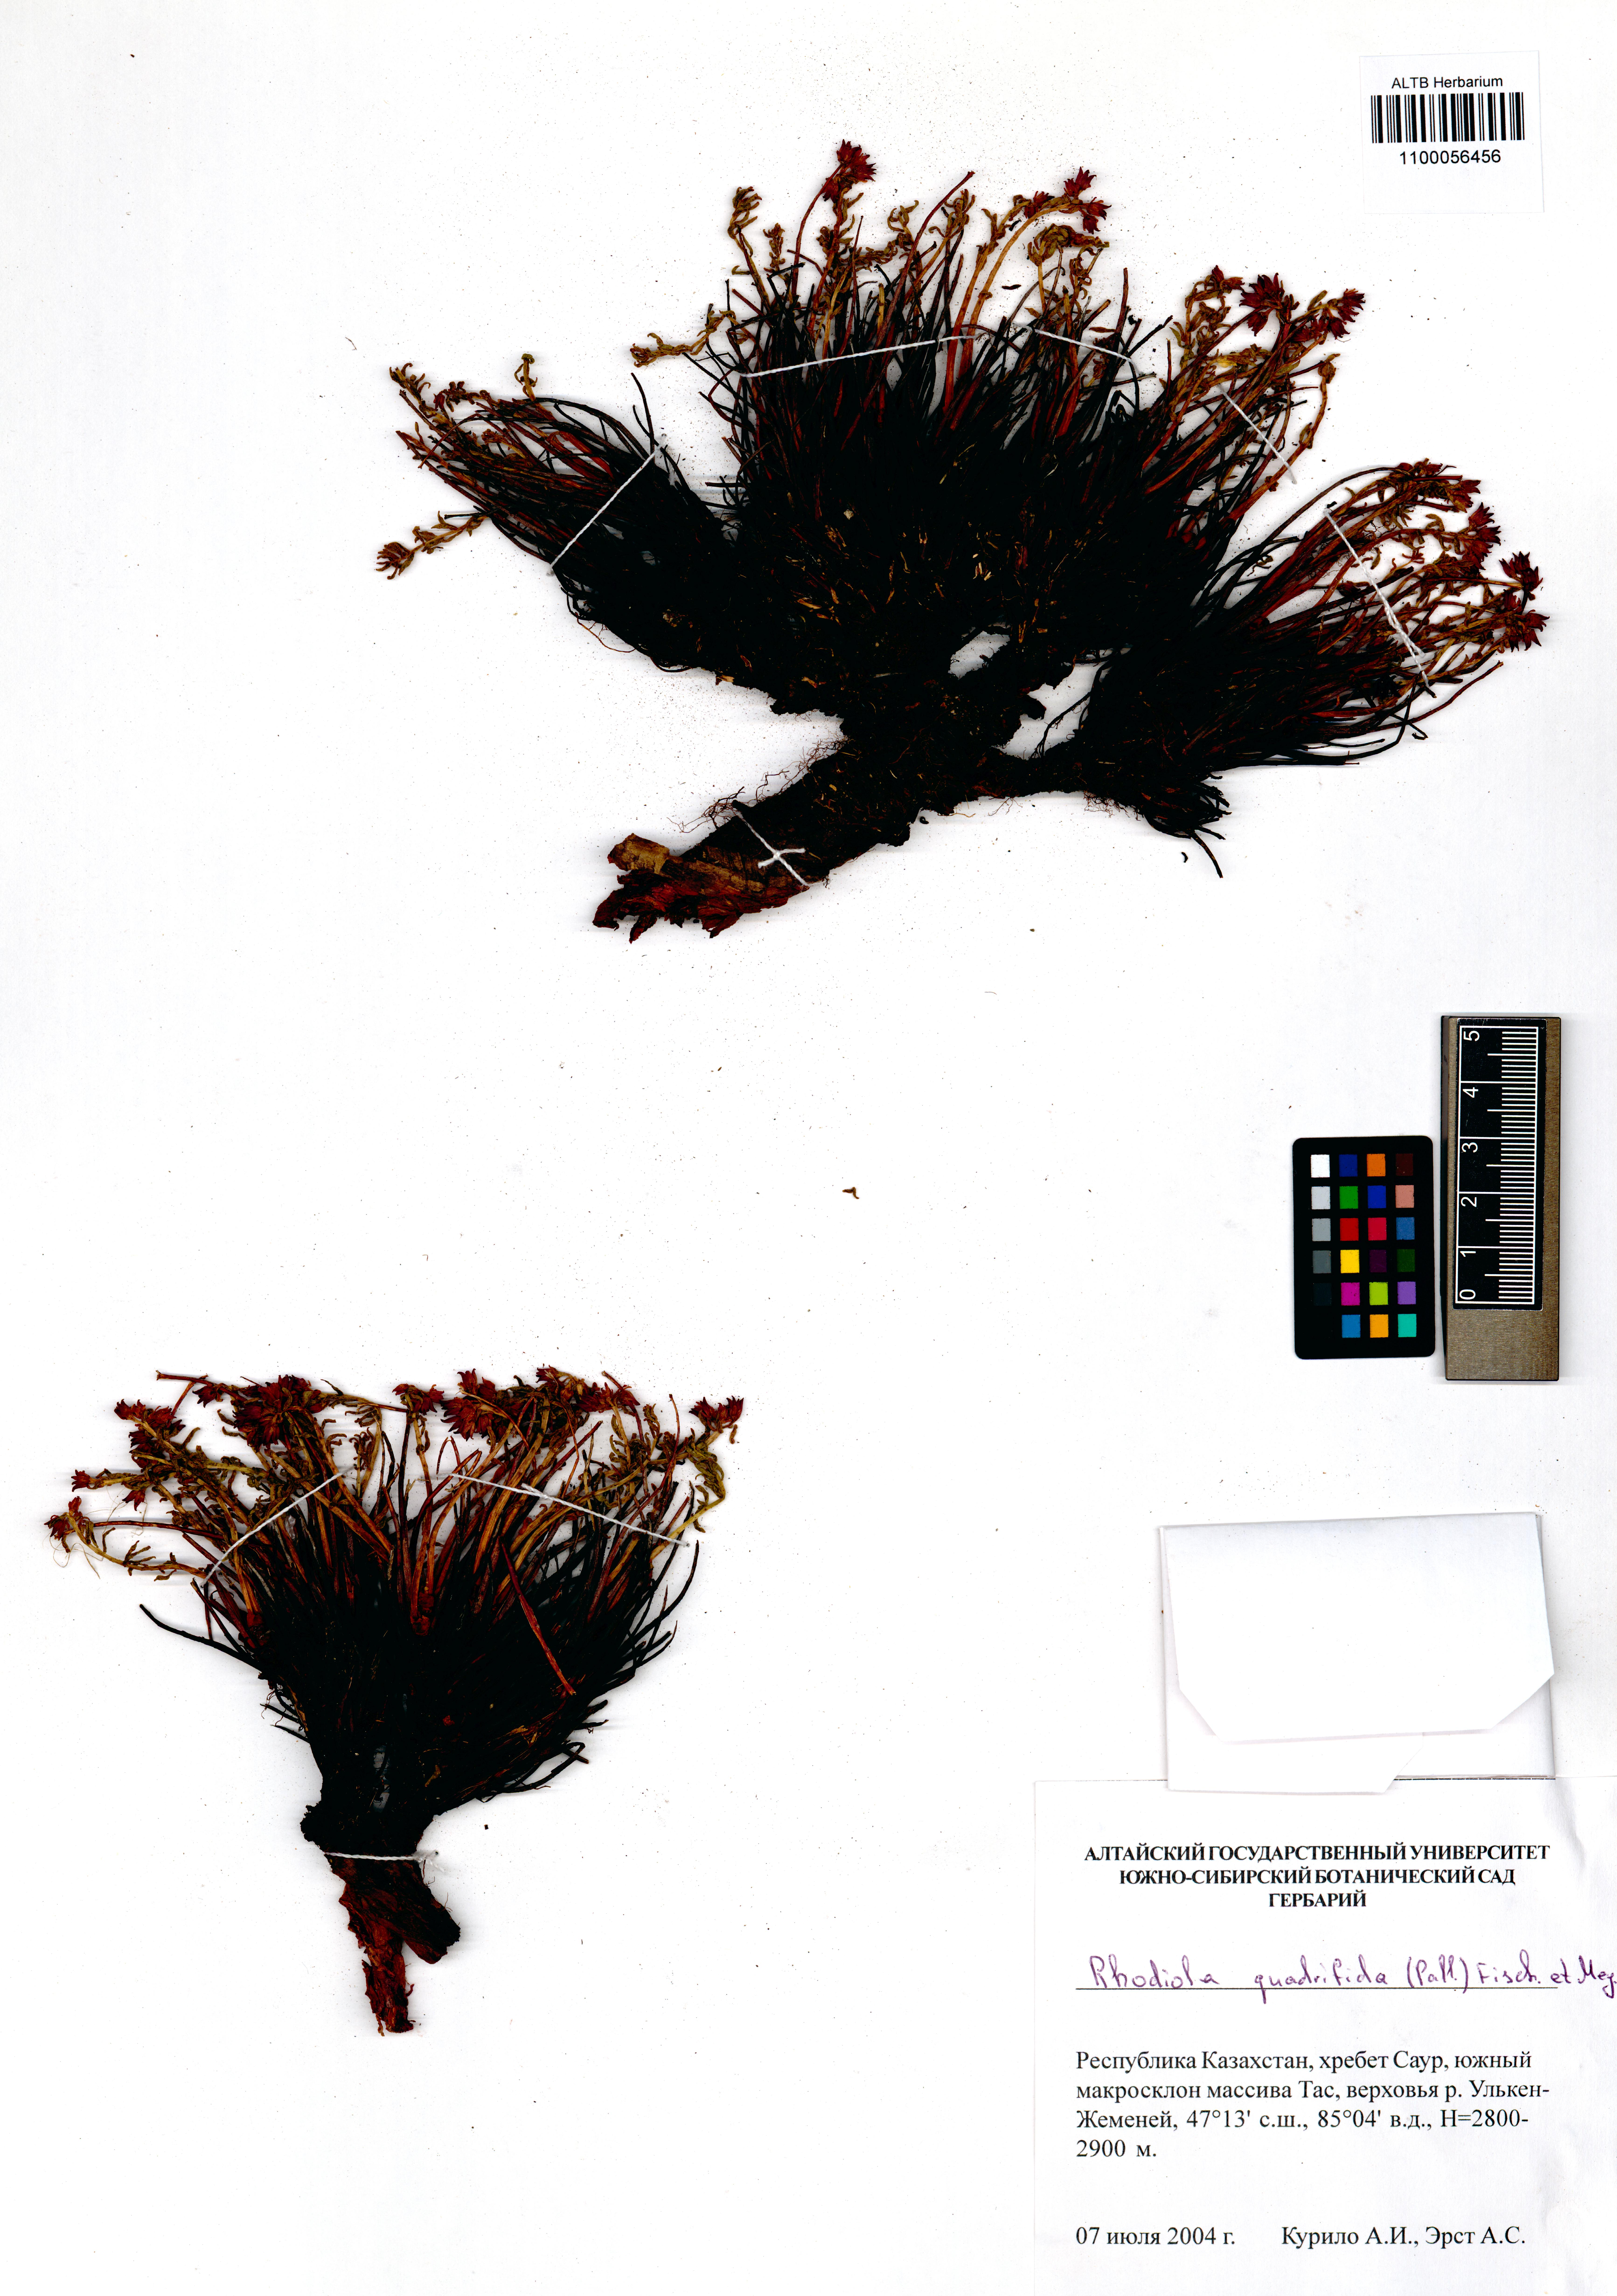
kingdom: Plantae
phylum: Tracheophyta
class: Magnoliopsida
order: Saxifragales
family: Crassulaceae
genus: Rhodiola
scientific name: Rhodiola quadrifida
